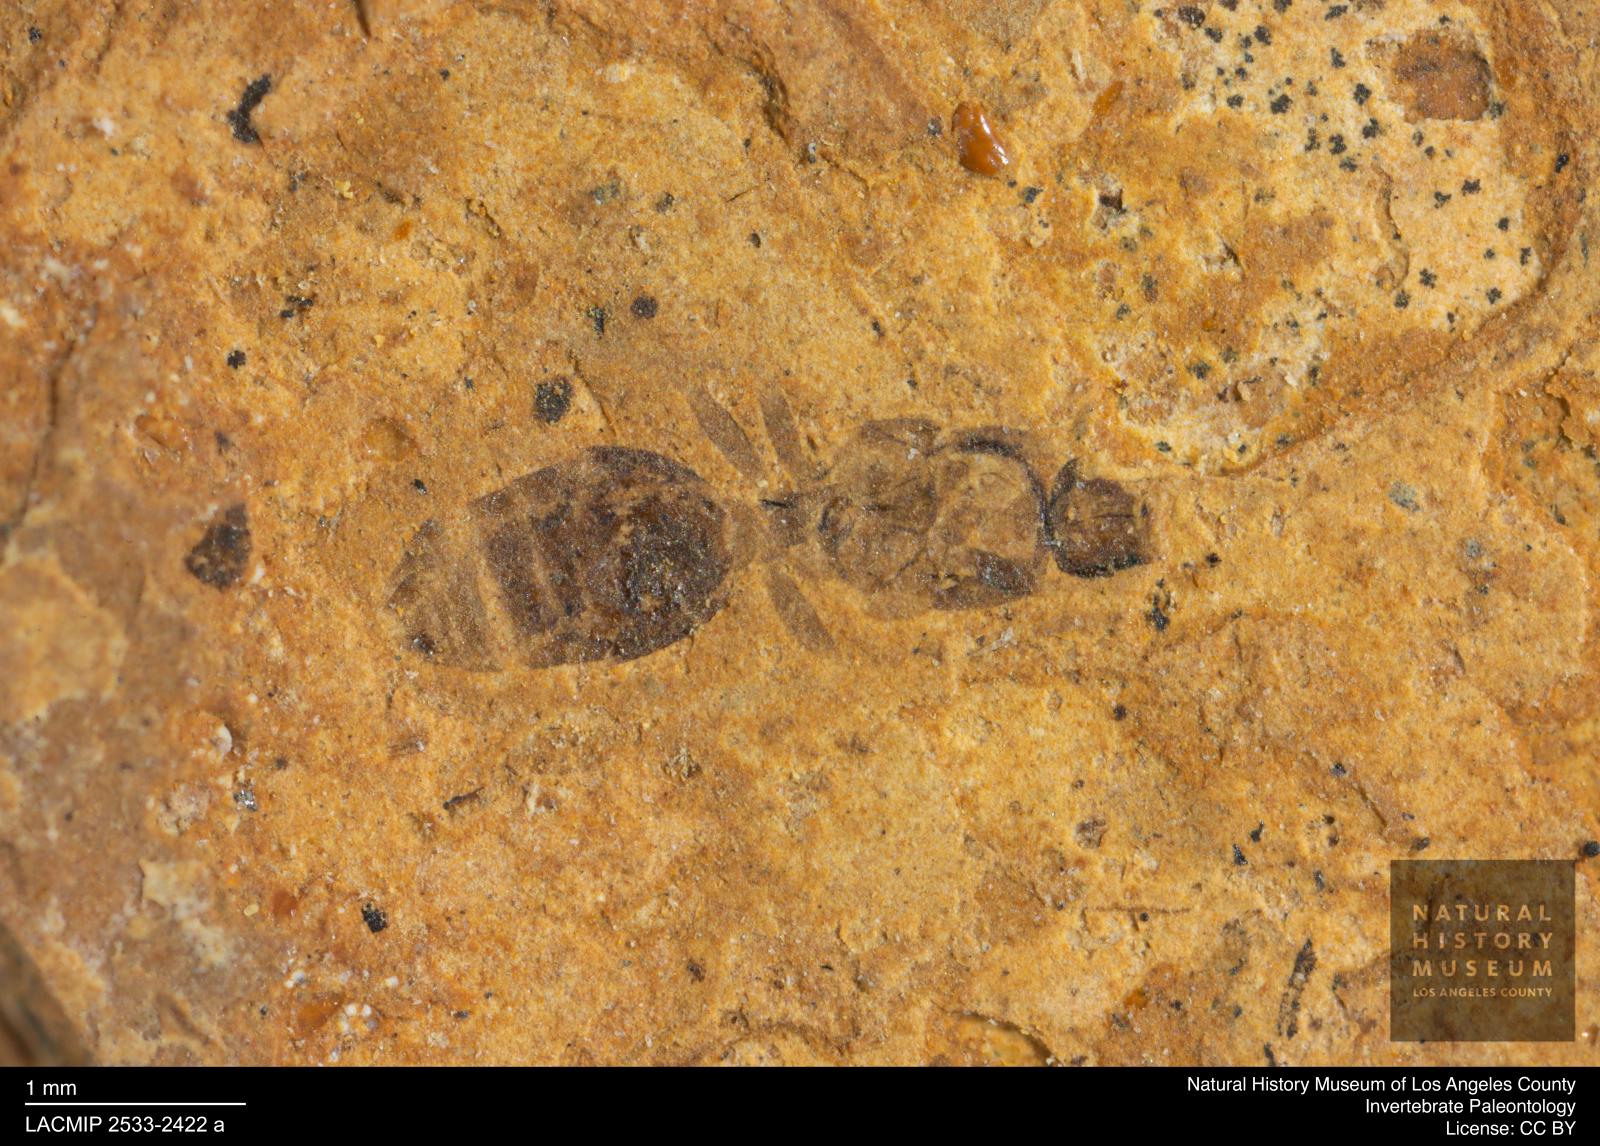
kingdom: Animalia
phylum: Arthropoda
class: Insecta
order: Hymenoptera
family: Formicidae
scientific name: Formicidae
